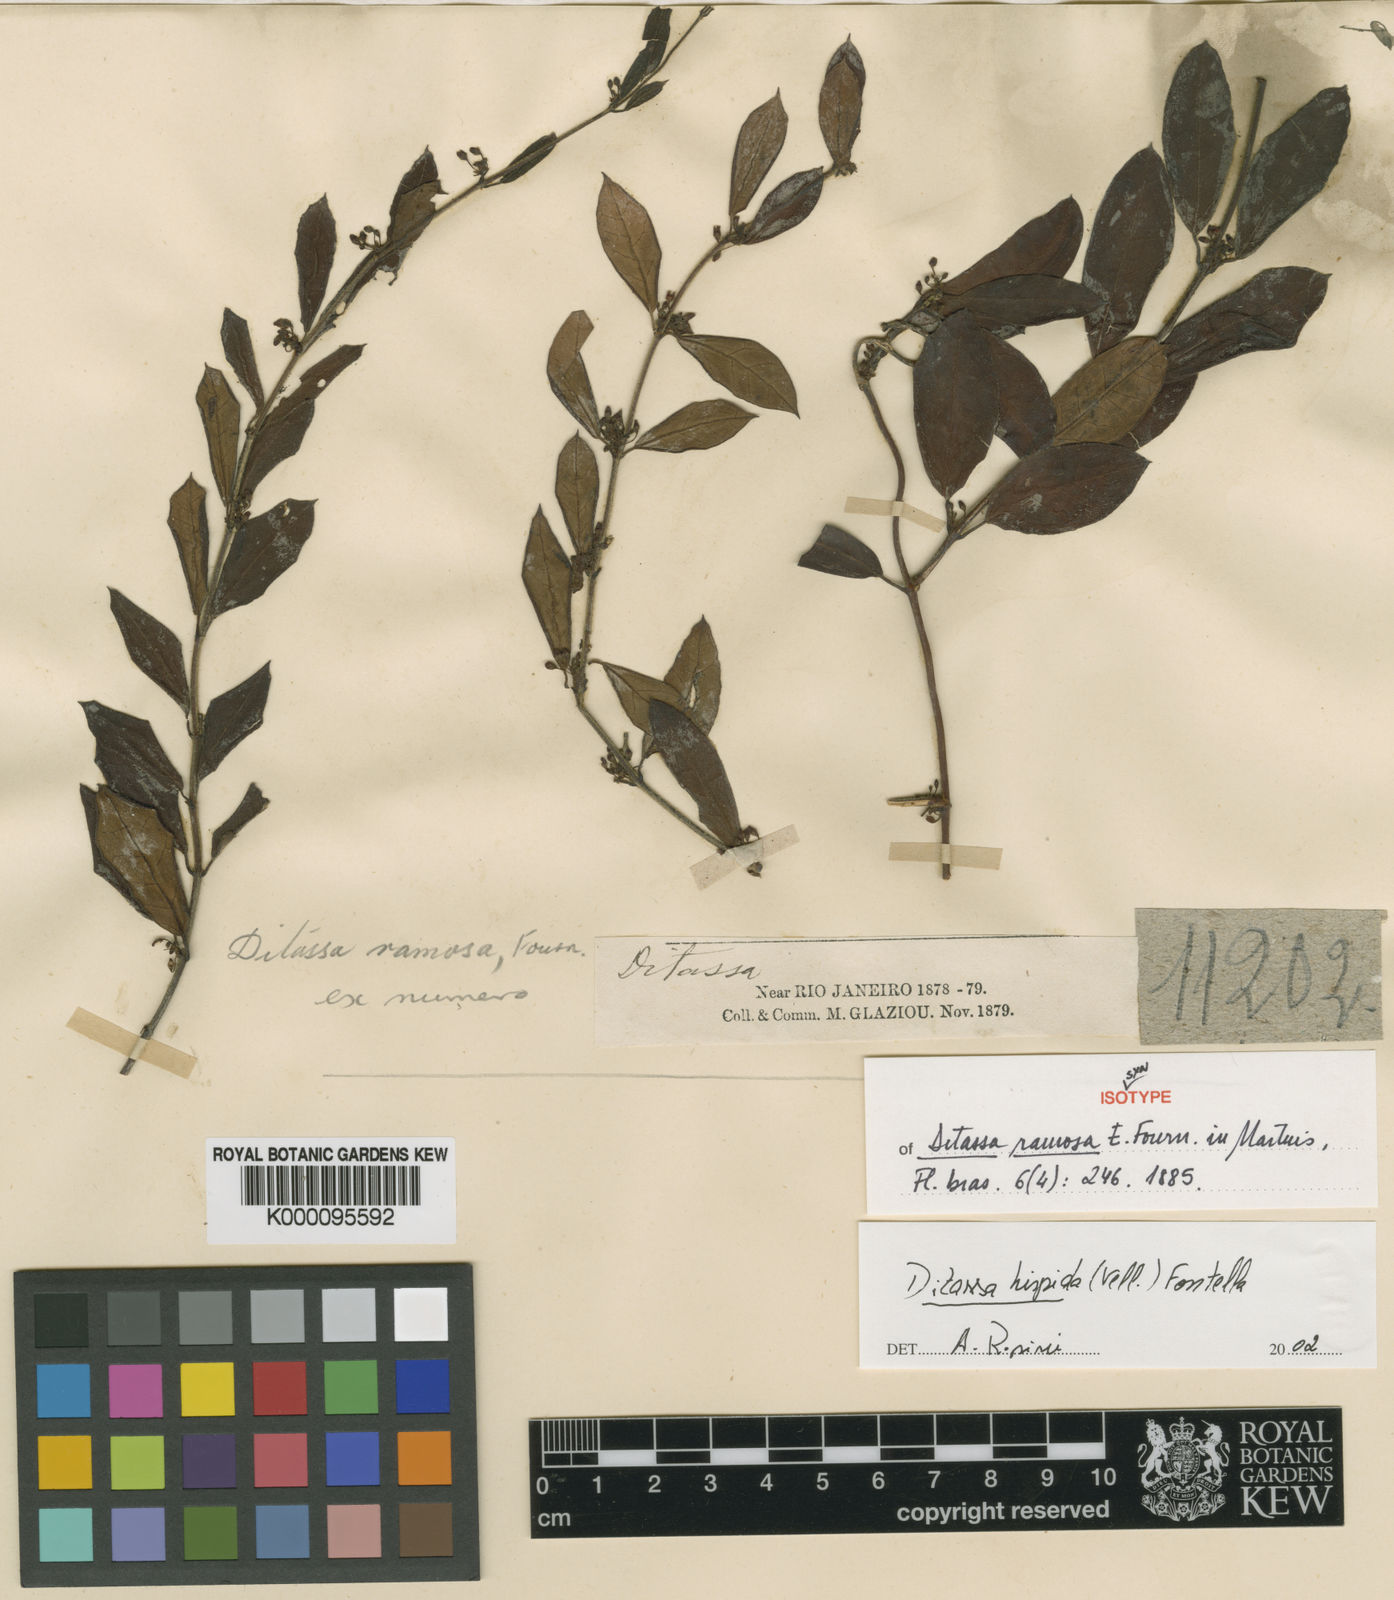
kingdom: Plantae
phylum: Tracheophyta
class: Magnoliopsida
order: Gentianales
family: Apocynaceae
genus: Ditassa
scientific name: Ditassa hispida
